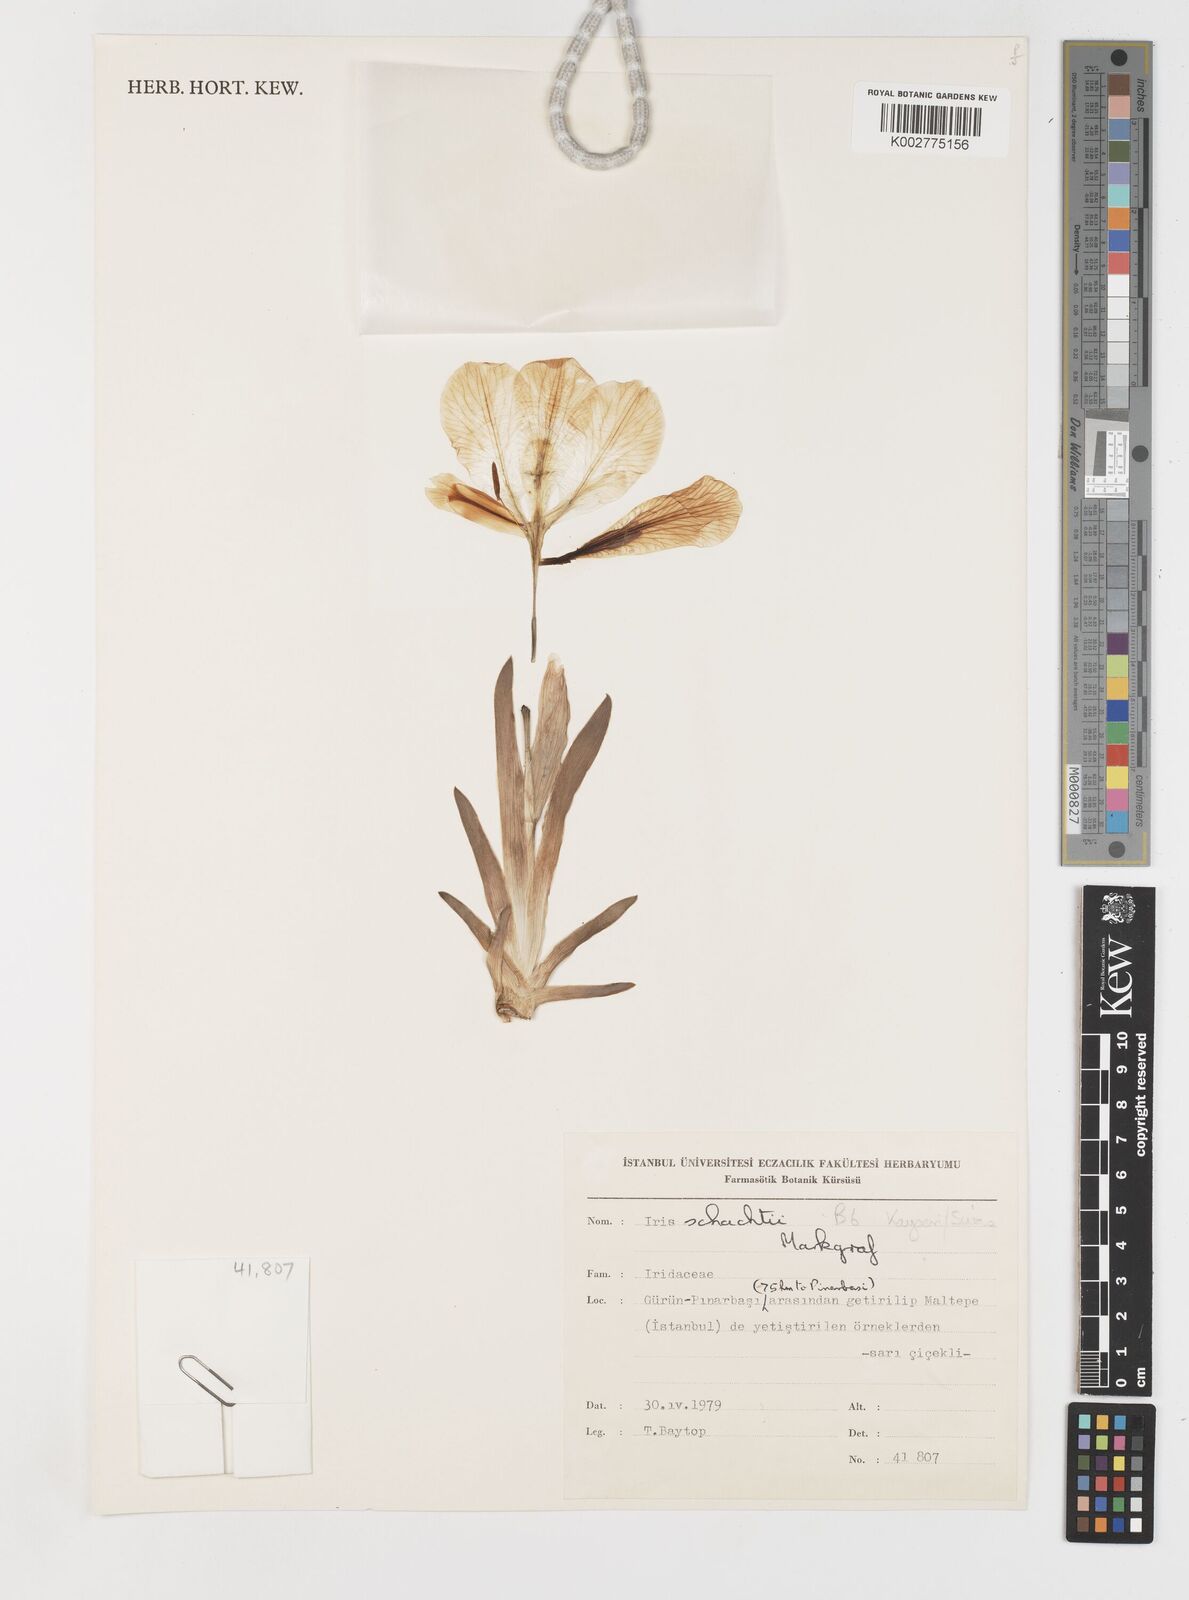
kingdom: Plantae
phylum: Tracheophyta
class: Liliopsida
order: Asparagales
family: Iridaceae
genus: Iris
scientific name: Iris schachtii
